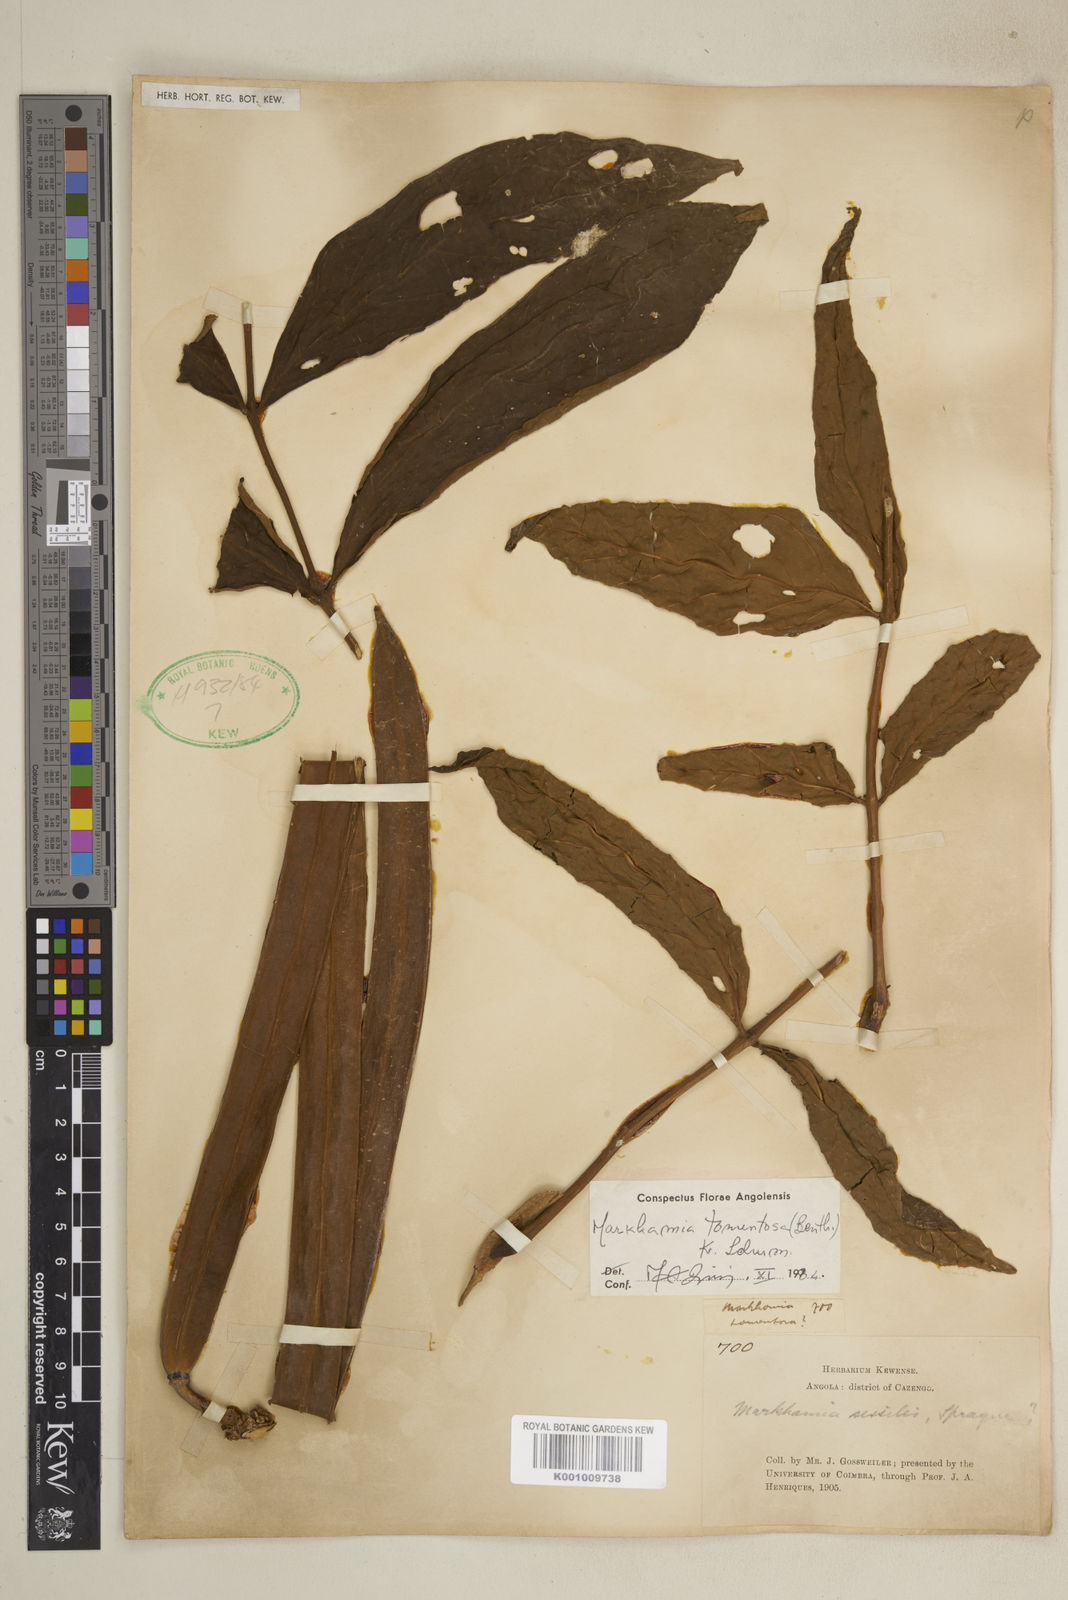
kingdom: Plantae
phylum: Tracheophyta
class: Magnoliopsida
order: Lamiales
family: Bignoniaceae
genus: Markhamia
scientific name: Markhamia tomentosa
